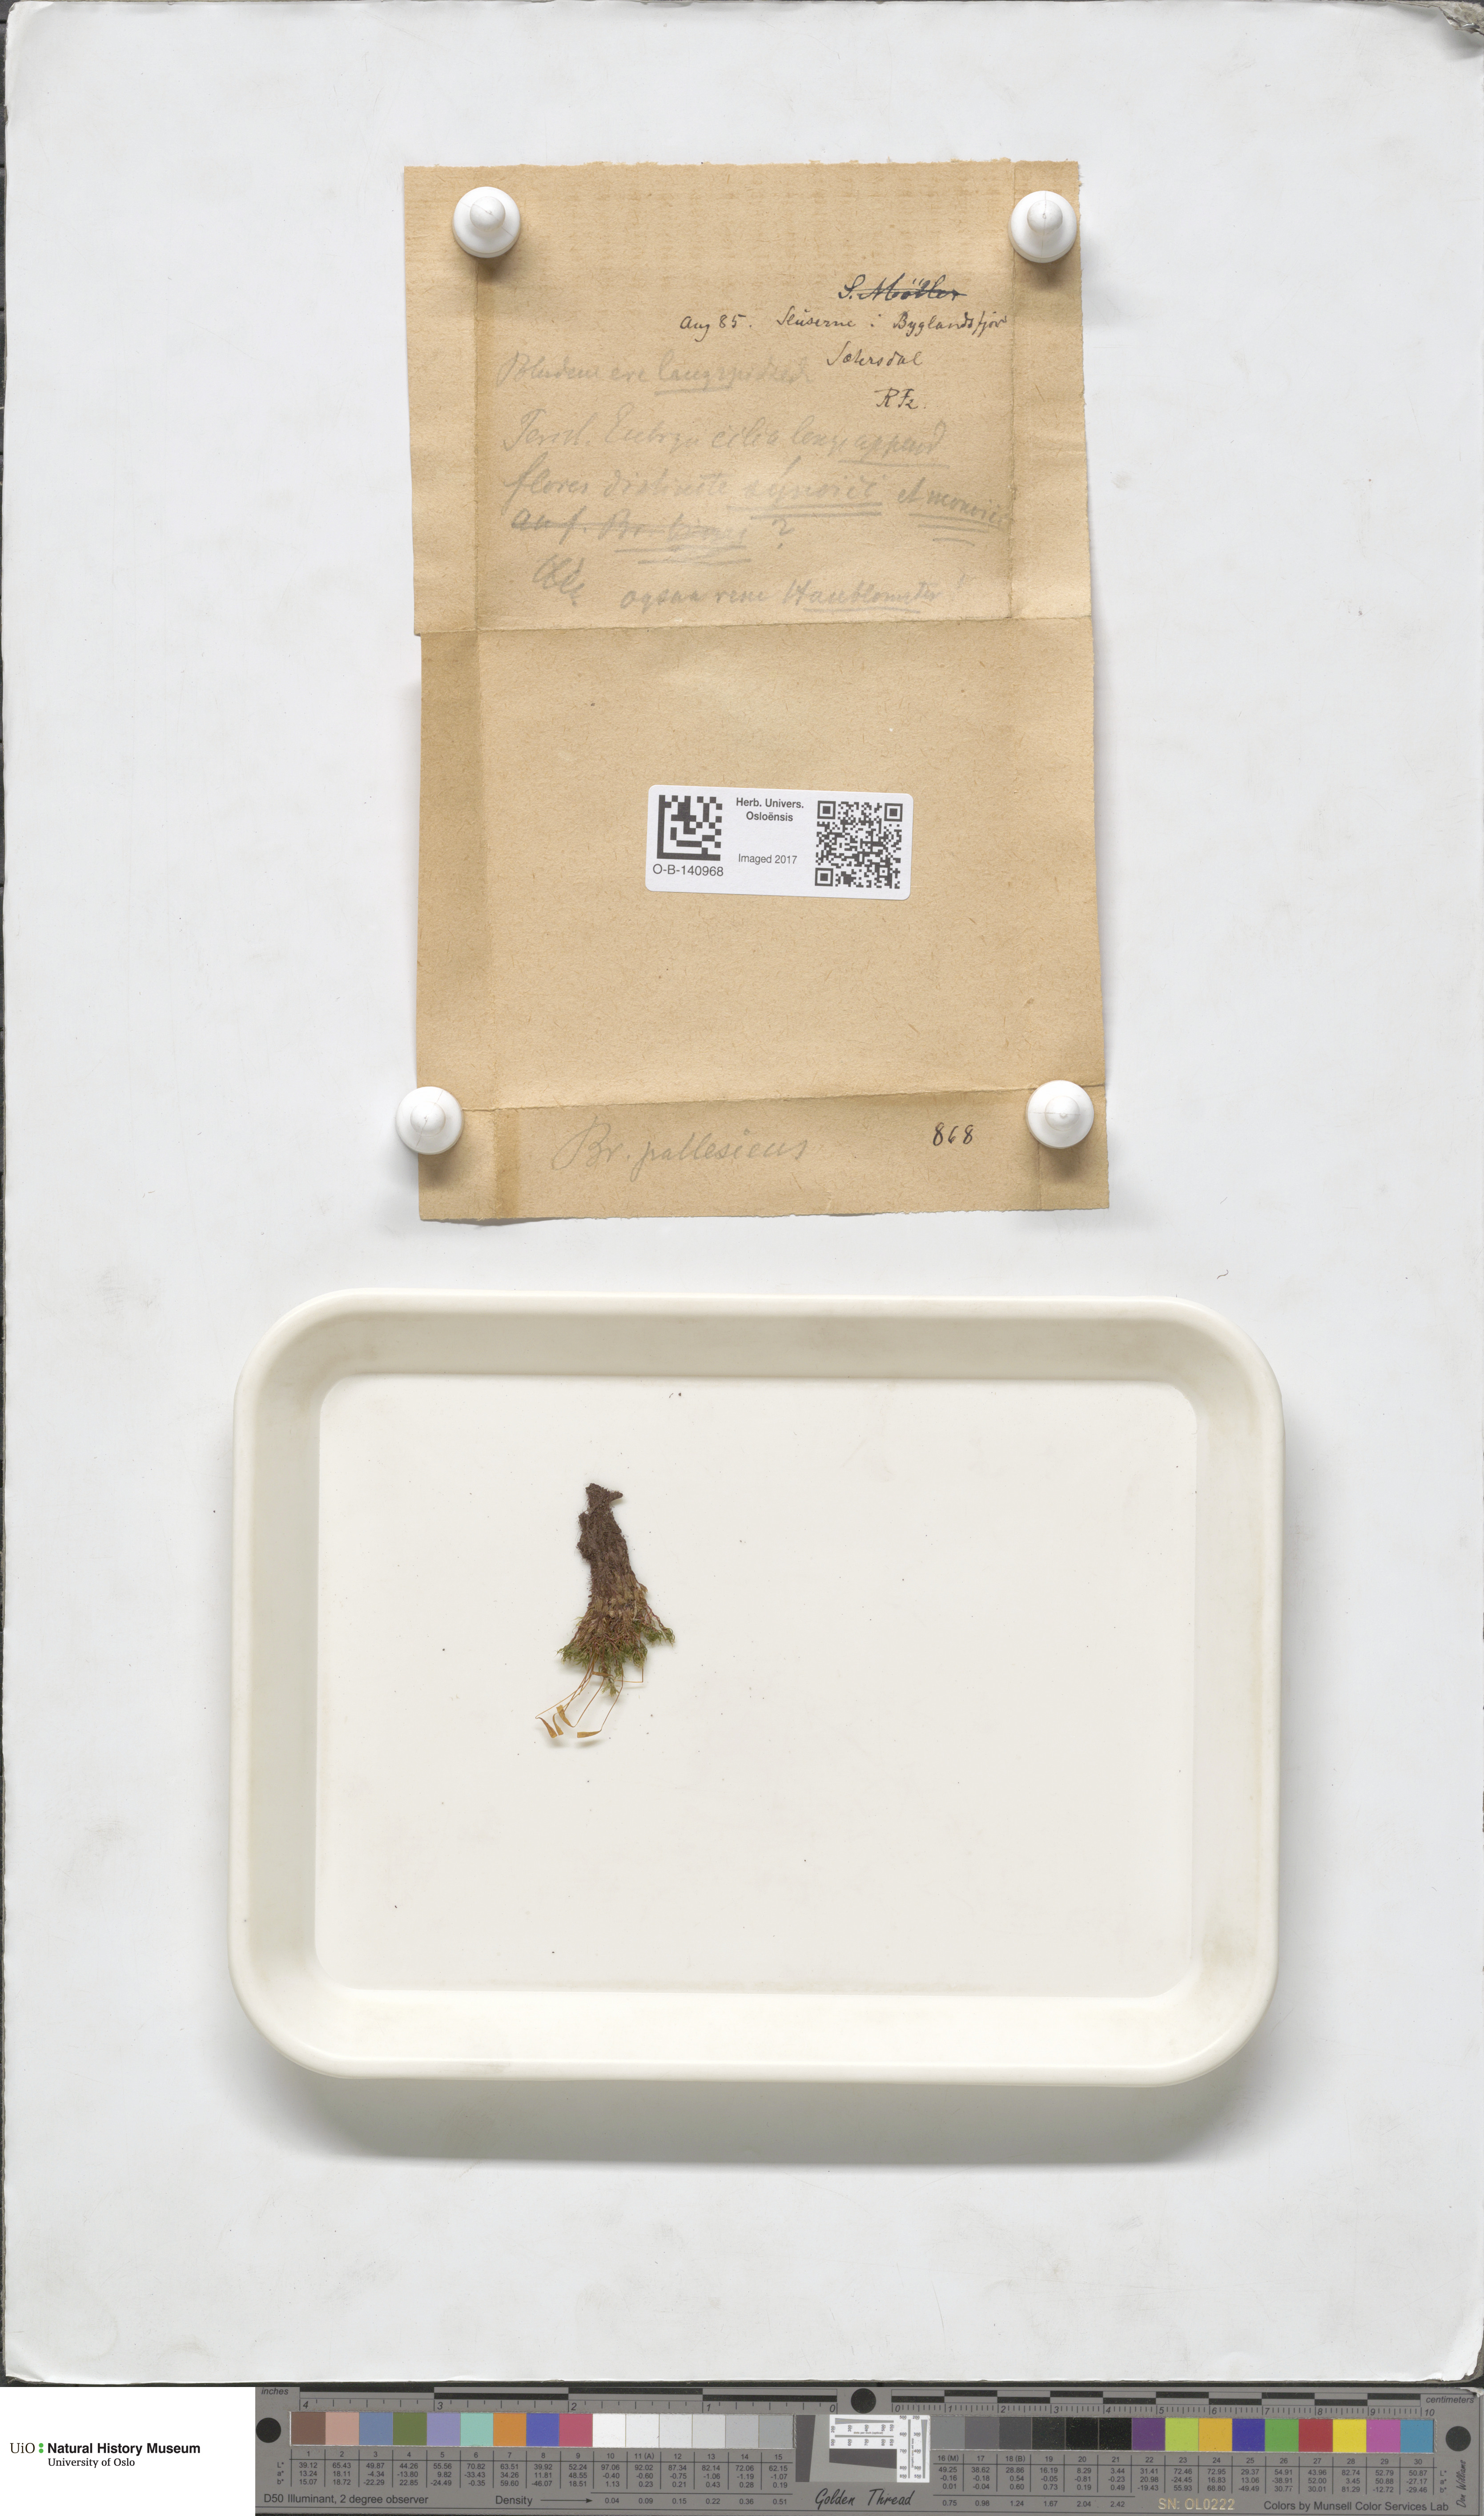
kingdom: Plantae
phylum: Bryophyta
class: Bryopsida
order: Bryales
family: Bryaceae
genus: Ptychostomum
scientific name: Ptychostomum pallescens
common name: Tall-clustered thread-moss
